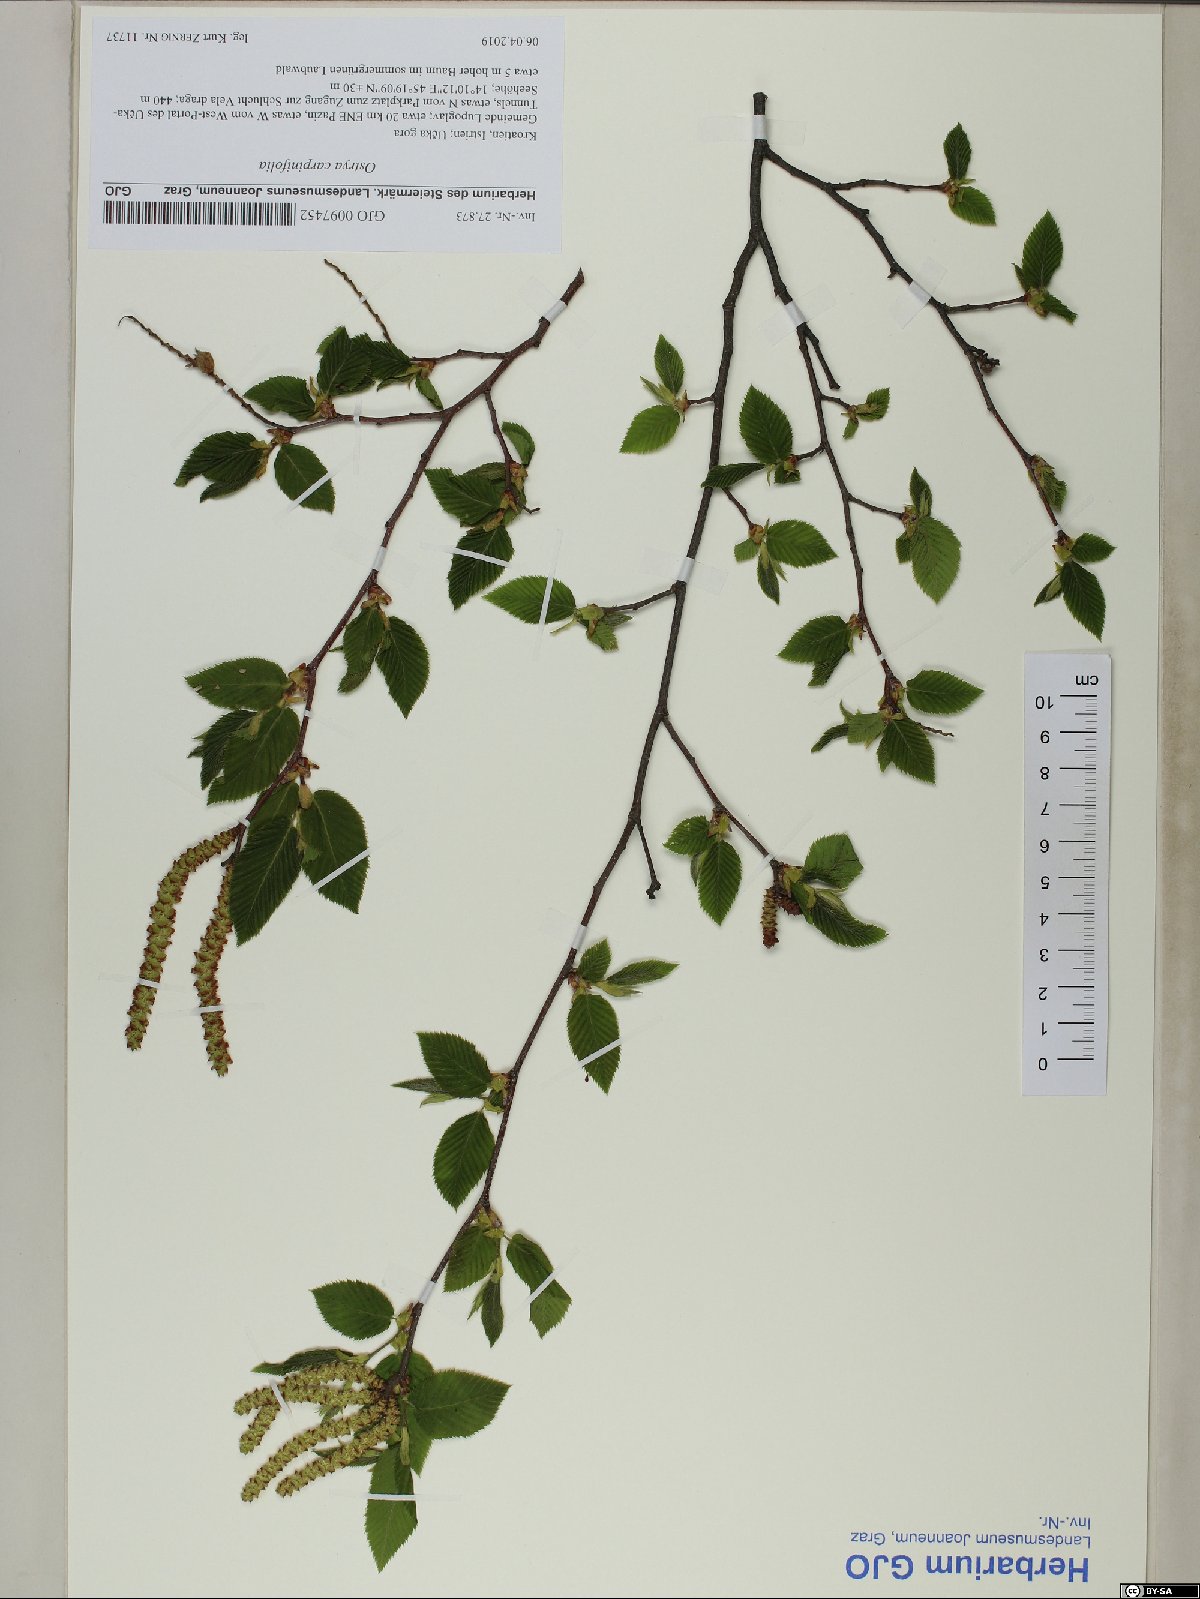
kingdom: Plantae
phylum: Tracheophyta
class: Magnoliopsida
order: Fagales
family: Betulaceae
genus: Ostrya
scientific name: Ostrya carpinifolia
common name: European hop-hornbeam
